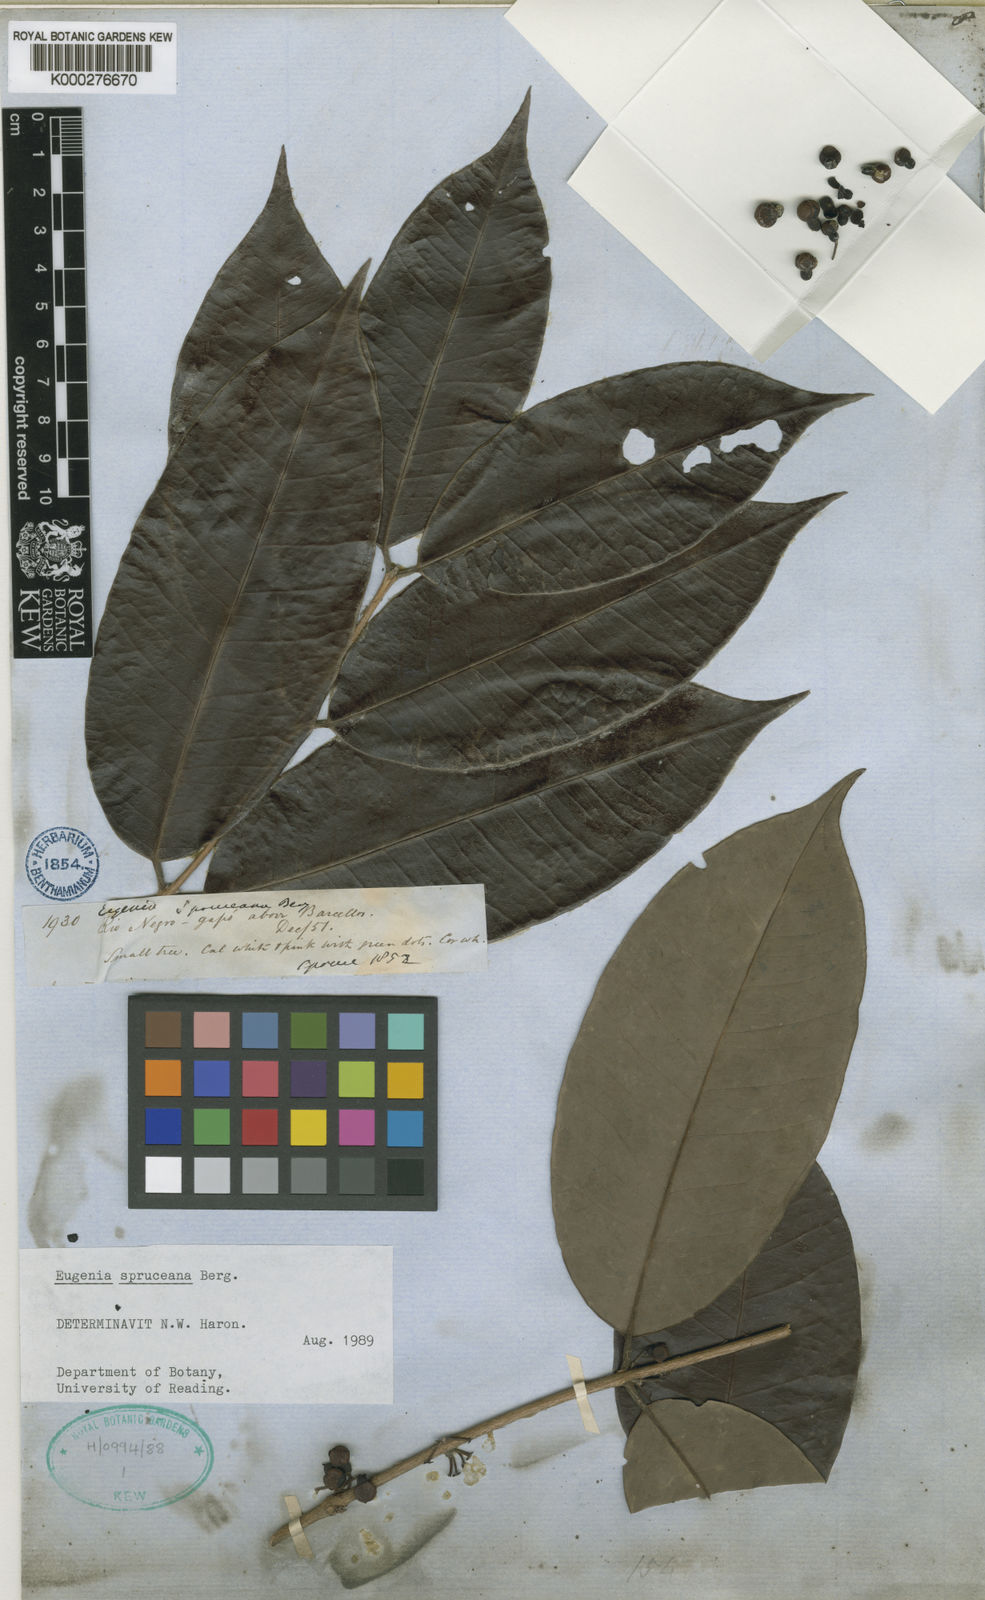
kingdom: Plantae
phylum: Tracheophyta
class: Magnoliopsida
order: Myrtales
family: Myrtaceae
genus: Eugenia
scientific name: Eugenia spruceana
